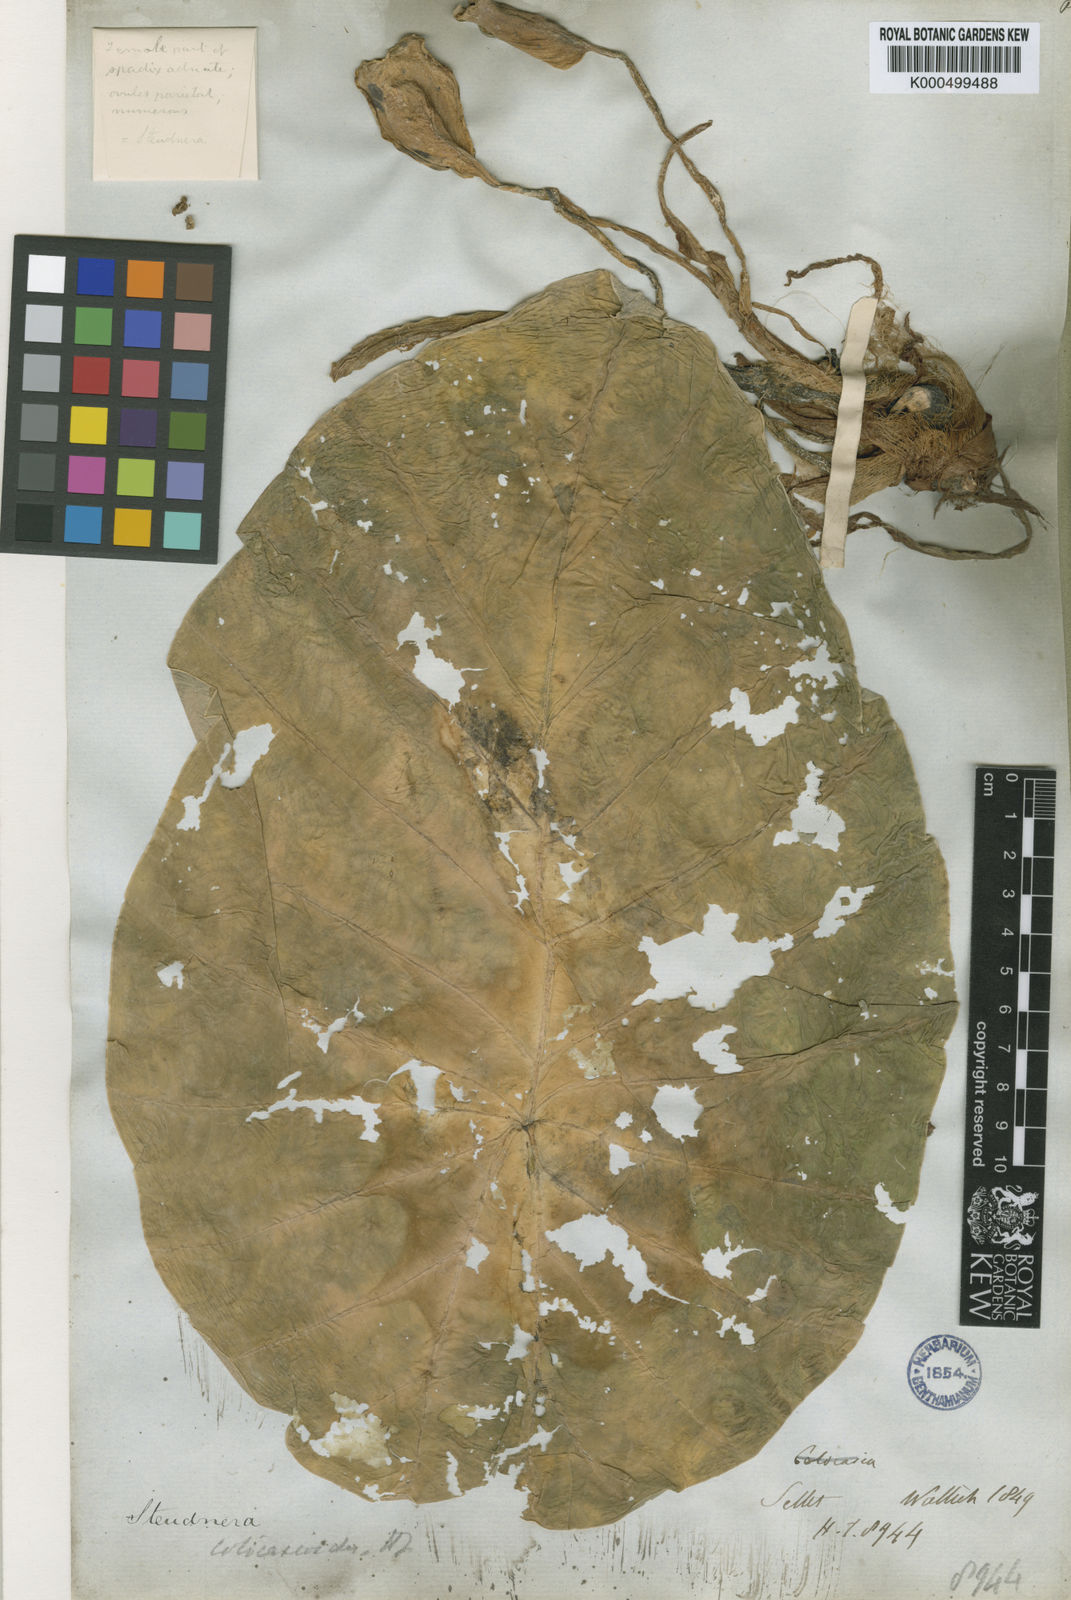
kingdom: Plantae
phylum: Tracheophyta
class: Liliopsida
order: Alismatales
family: Araceae
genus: Steudnera
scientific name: Steudnera colocasioides
